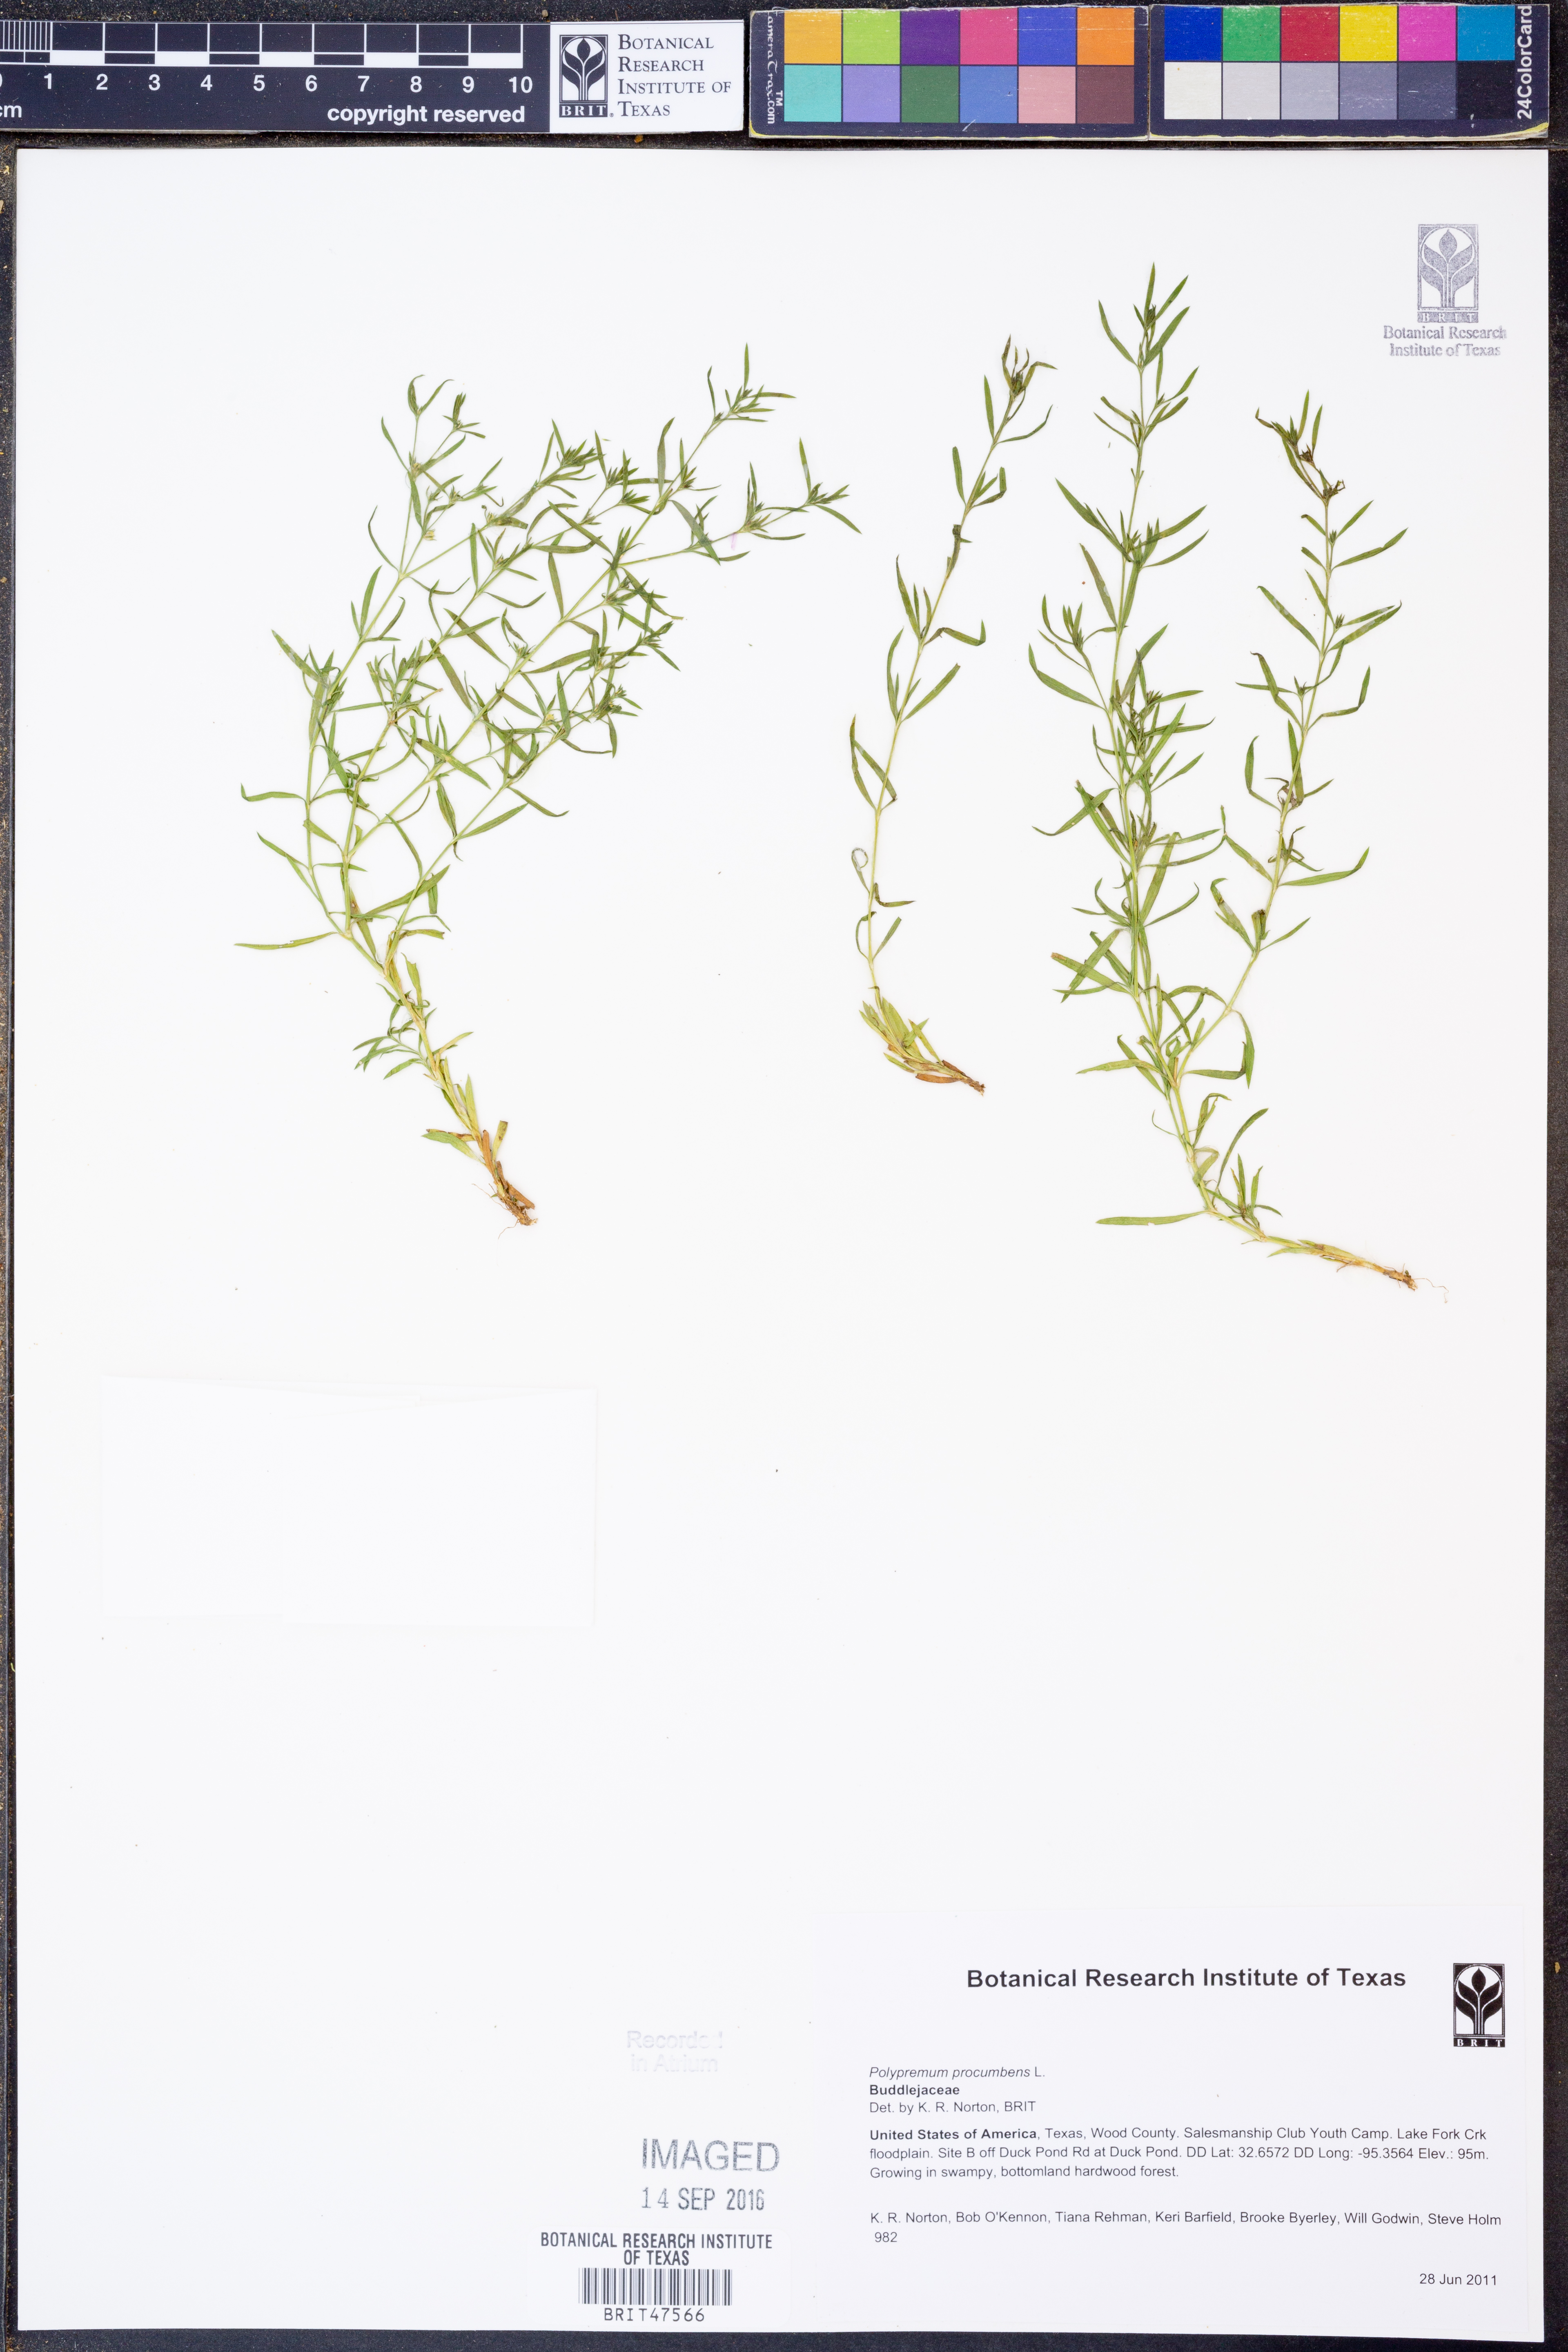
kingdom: Plantae
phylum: Tracheophyta
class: Magnoliopsida
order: Lamiales
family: Tetrachondraceae
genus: Polypremum
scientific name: Polypremum procumbens
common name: Juniper-leaf
